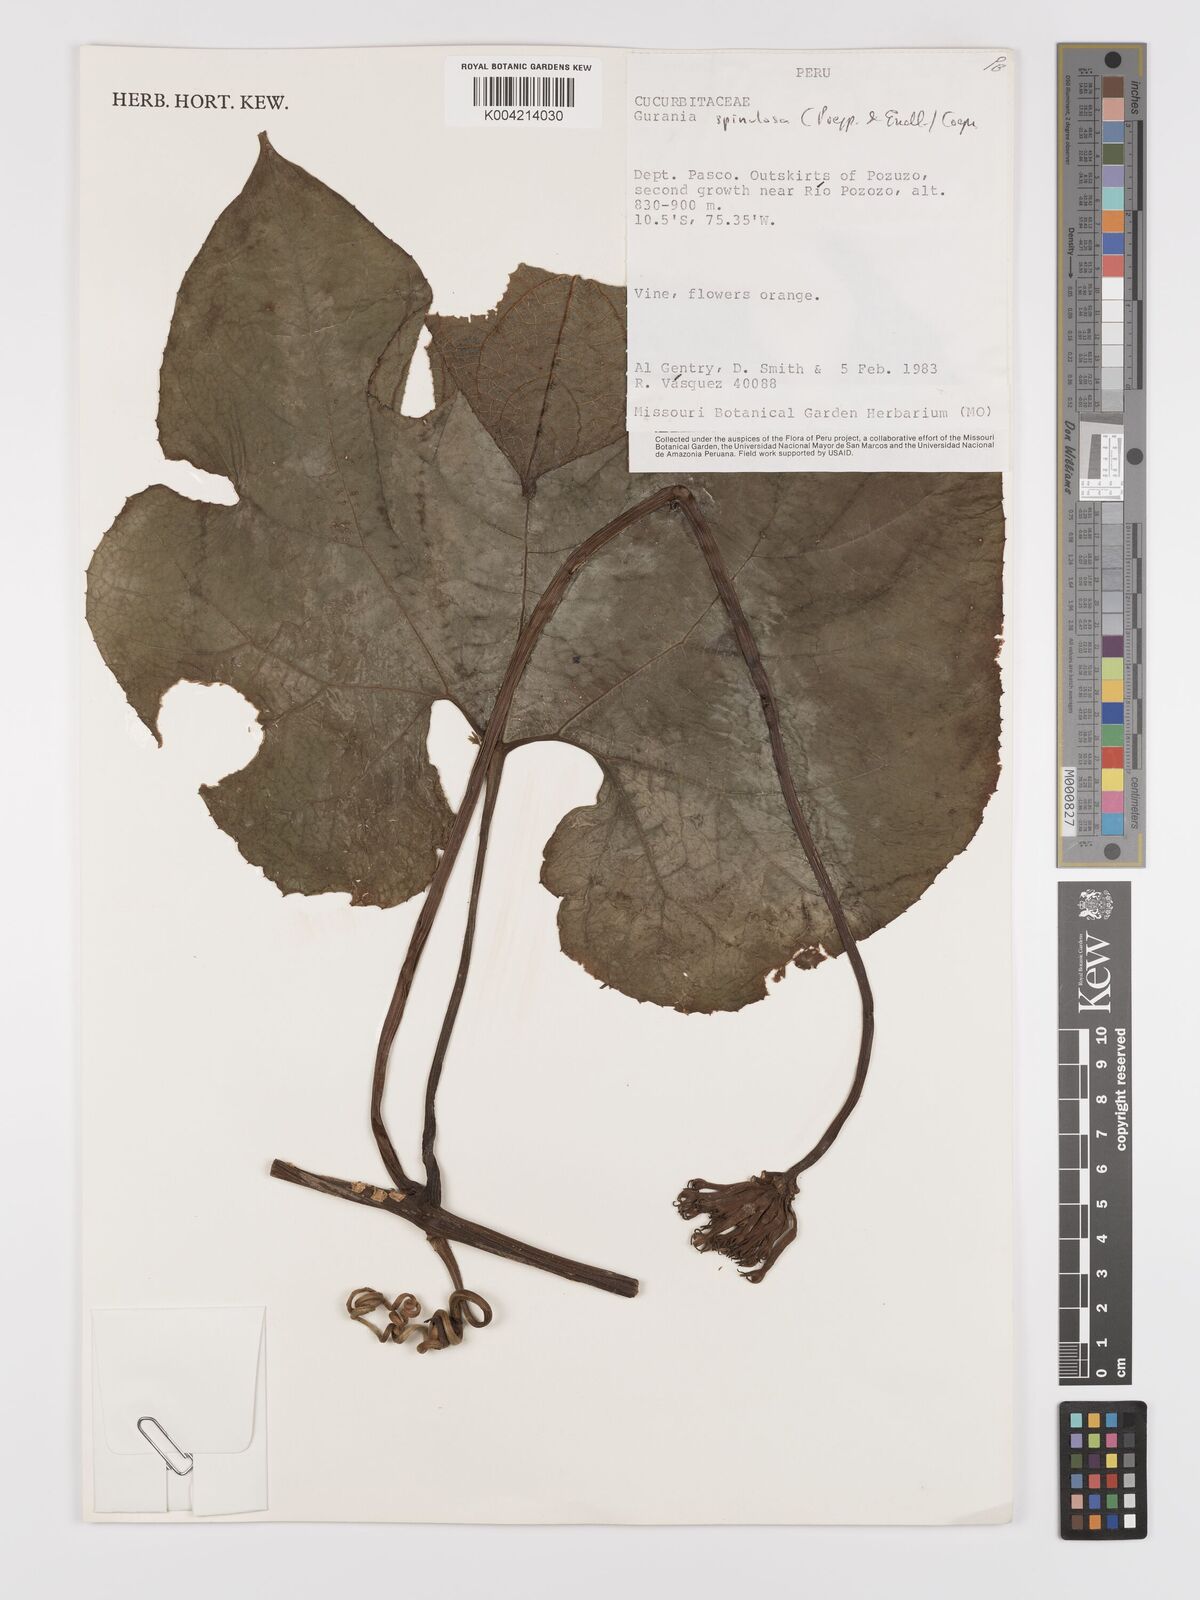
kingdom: Plantae
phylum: Tracheophyta
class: Magnoliopsida
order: Cucurbitales
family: Cucurbitaceae
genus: Gurania
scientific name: Gurania lobata
